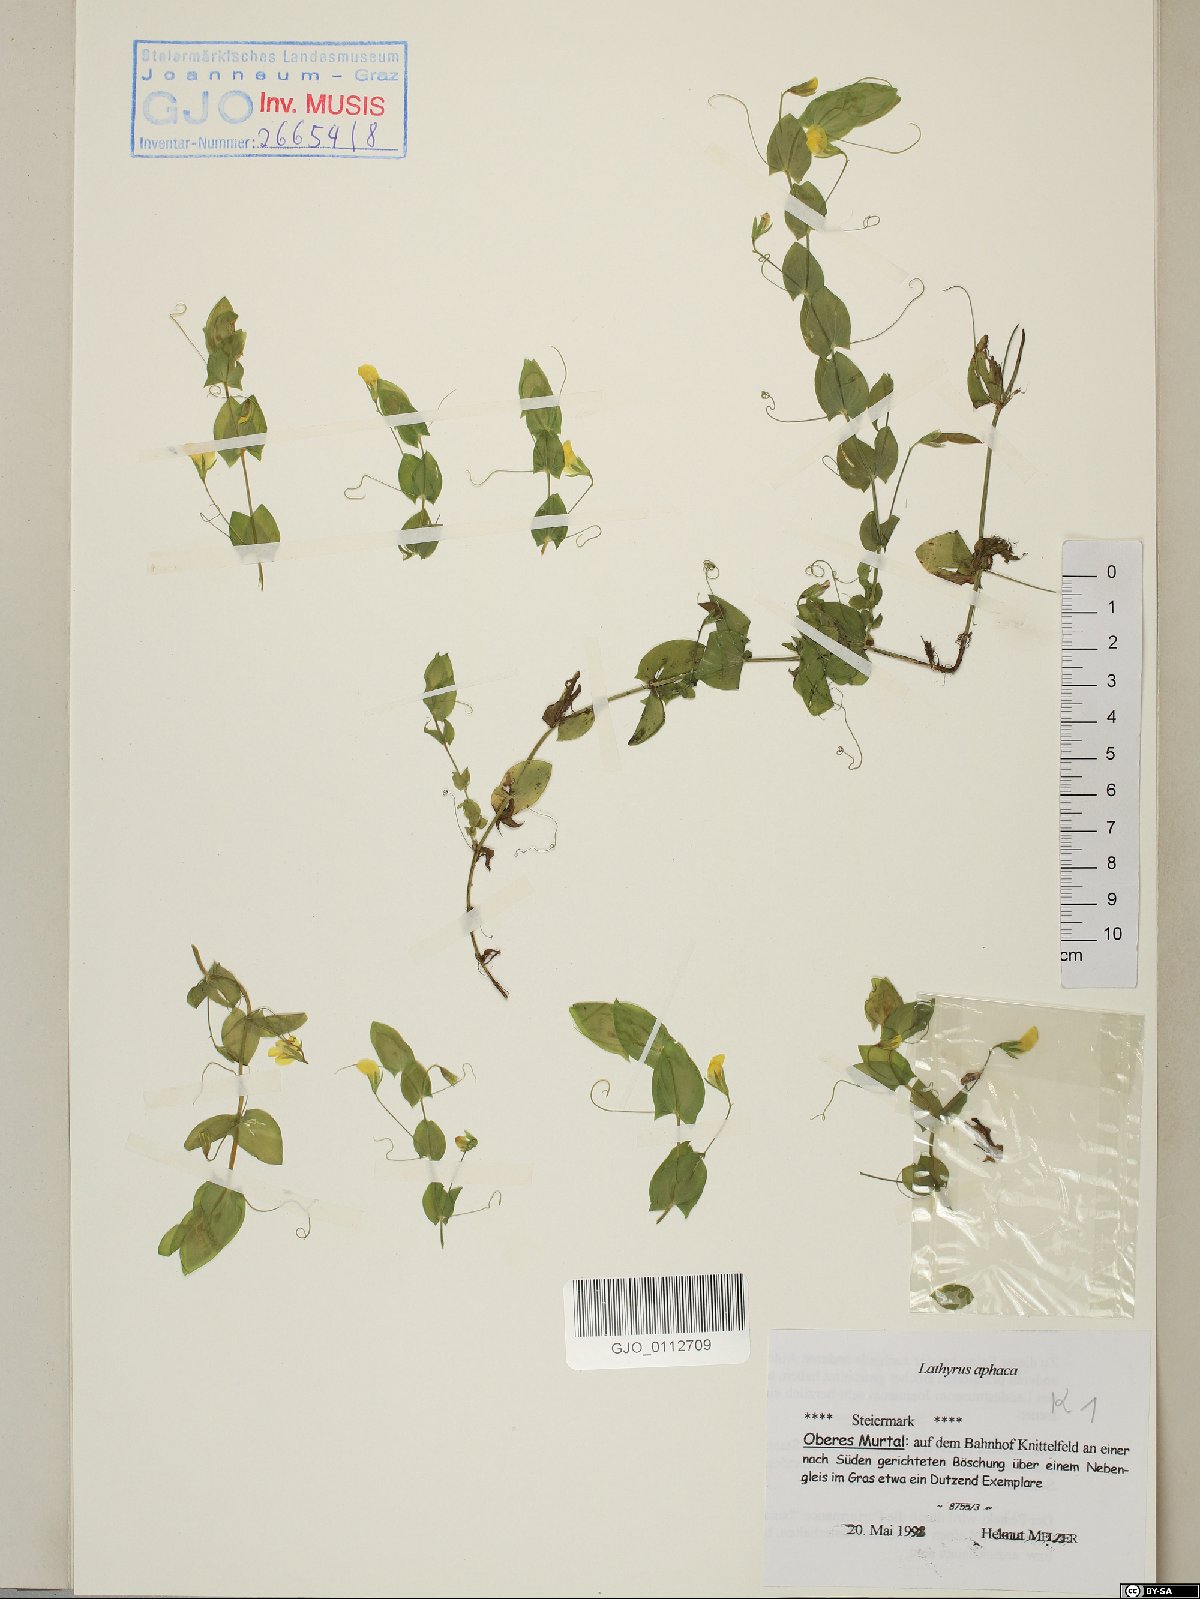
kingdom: Plantae
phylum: Tracheophyta
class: Magnoliopsida
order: Fabales
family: Fabaceae
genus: Lathyrus
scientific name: Lathyrus aphaca
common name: Yellow vetchling
